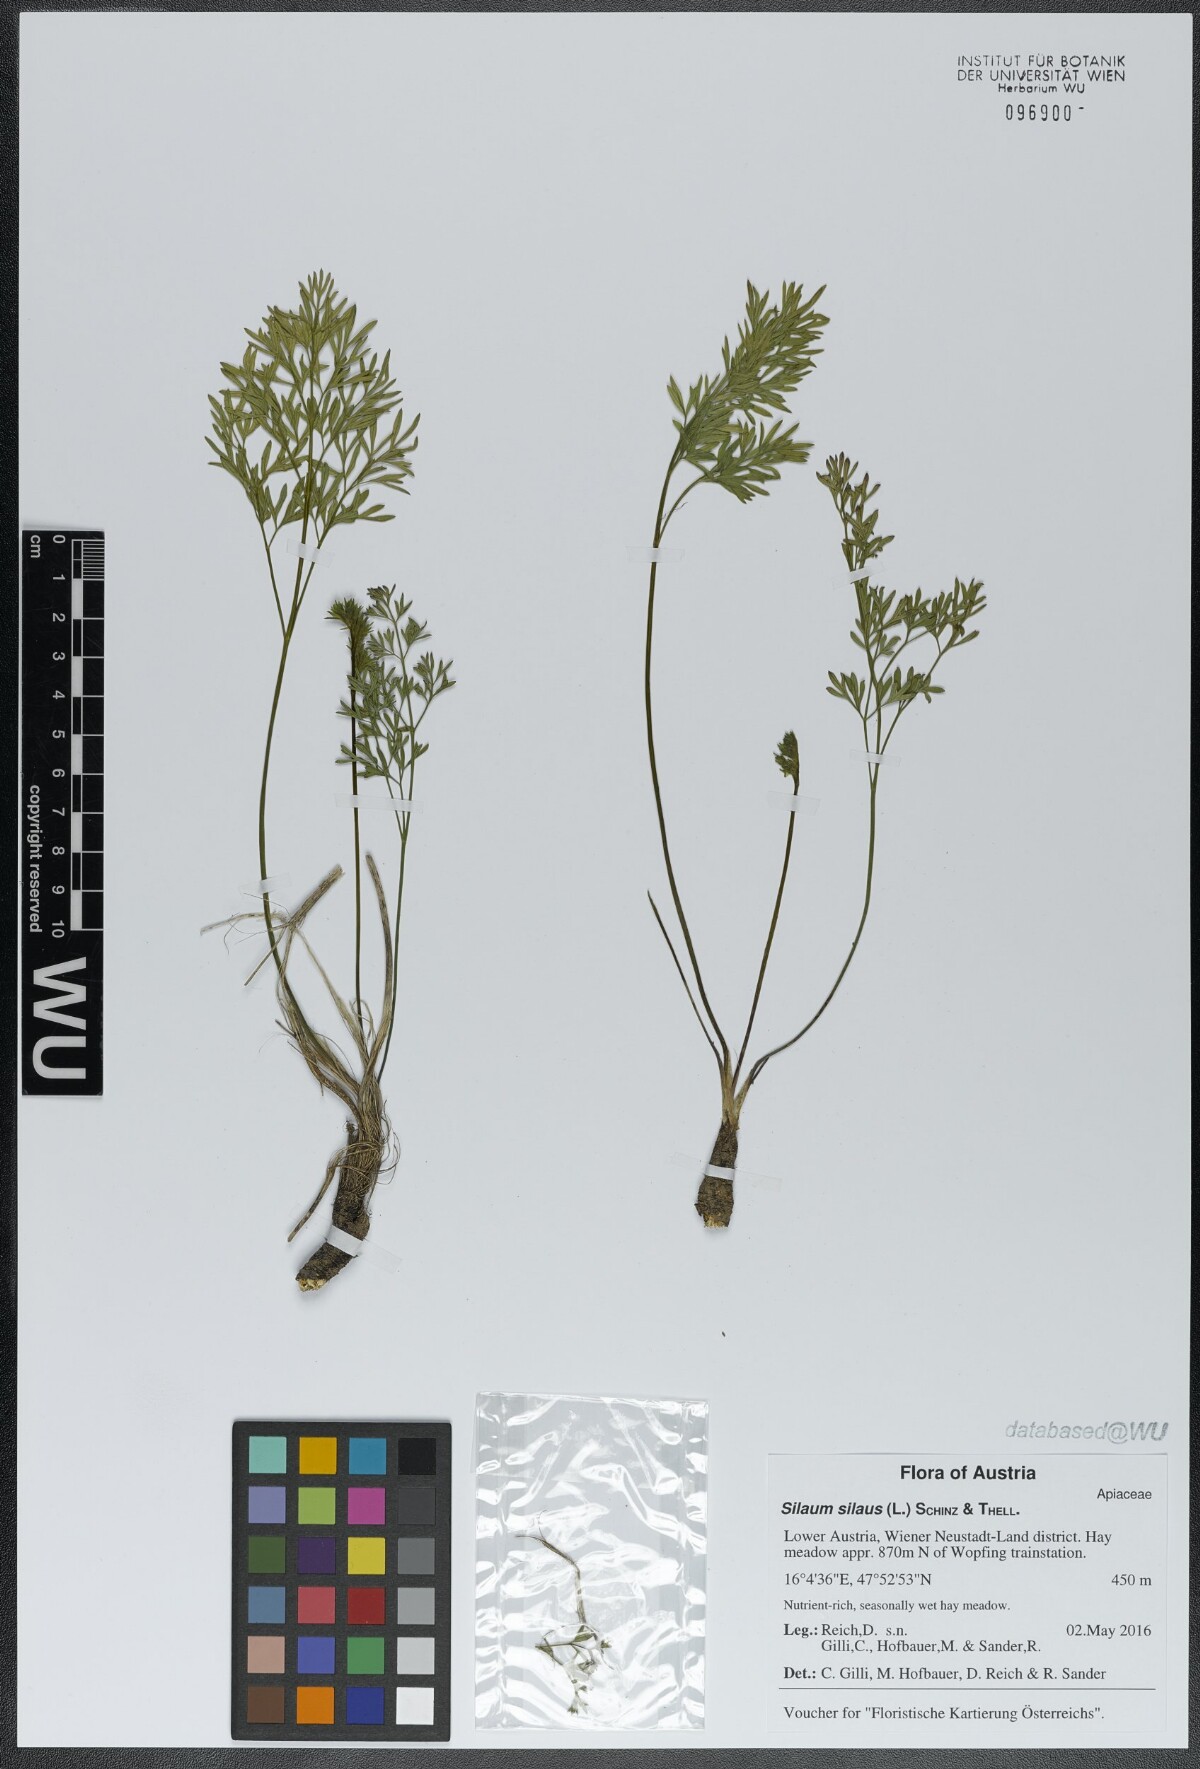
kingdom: Plantae
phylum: Tracheophyta
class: Magnoliopsida
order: Apiales
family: Apiaceae
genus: Silaum
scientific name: Silaum silaus
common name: Pepper-saxifrage
